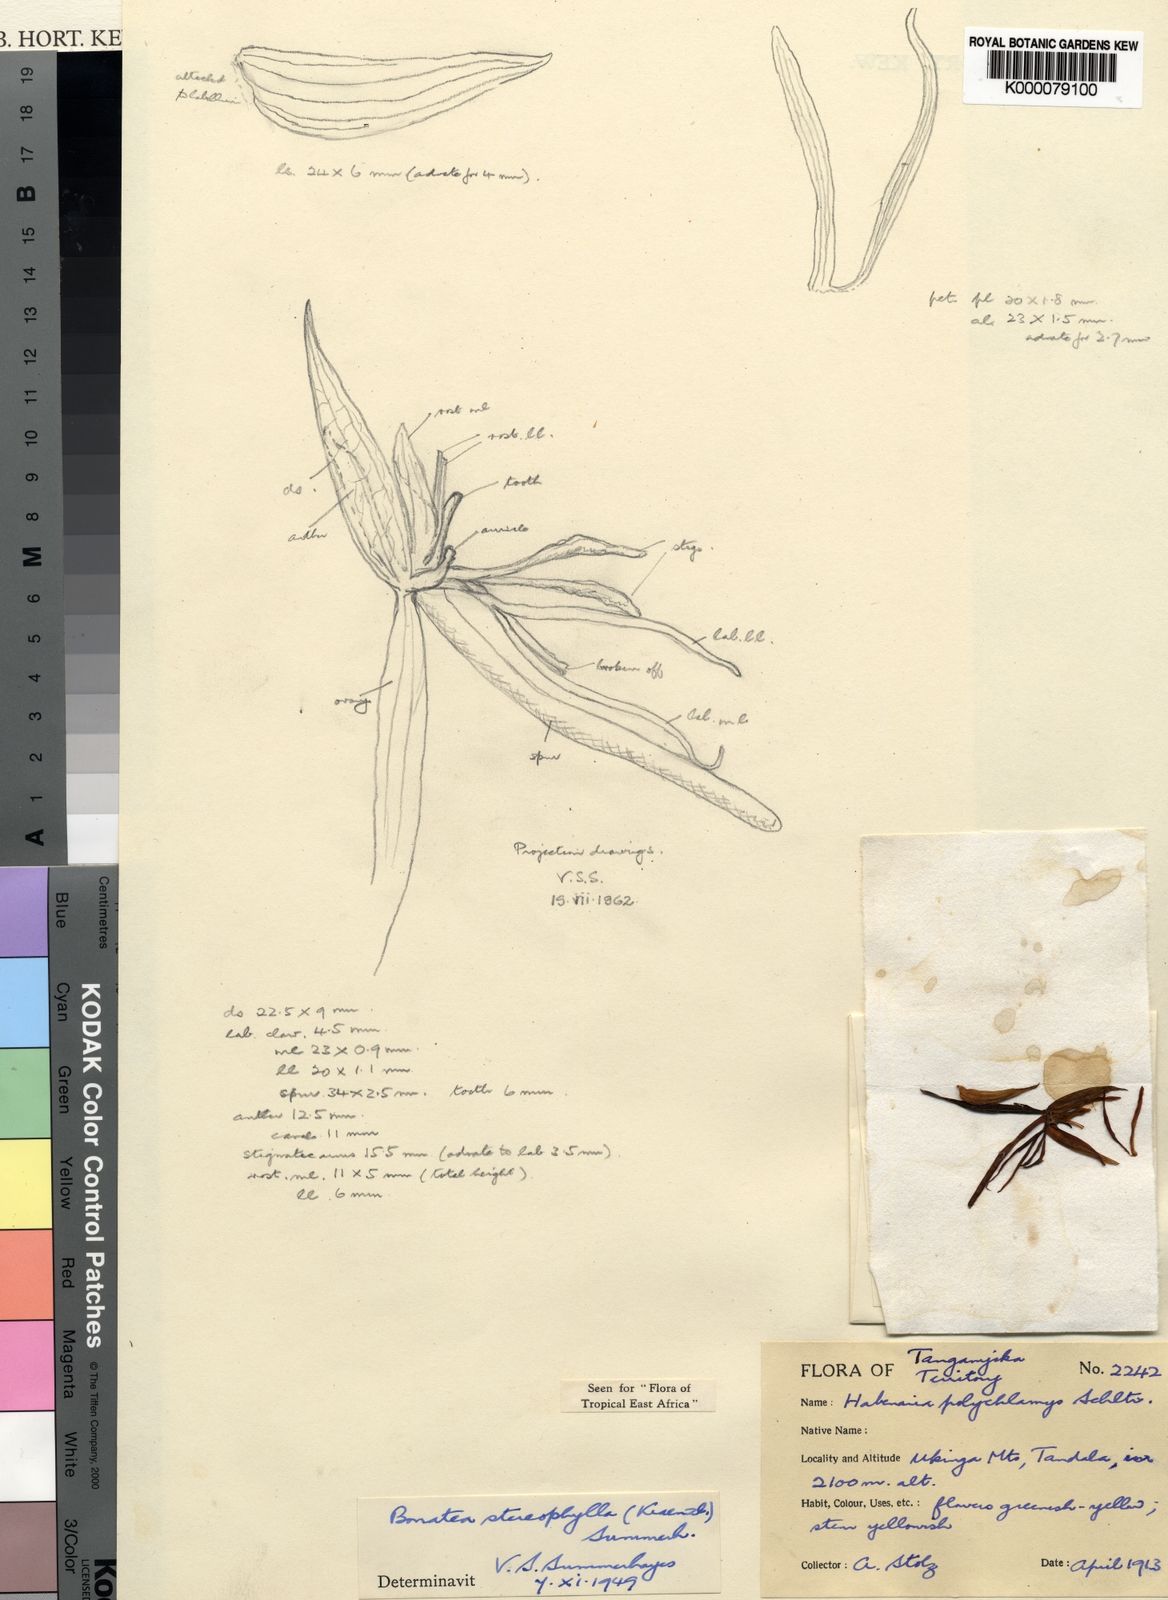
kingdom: Plantae
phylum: Tracheophyta
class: Liliopsida
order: Asparagales
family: Orchidaceae
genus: Bonatea
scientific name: Bonatea stereophylla
